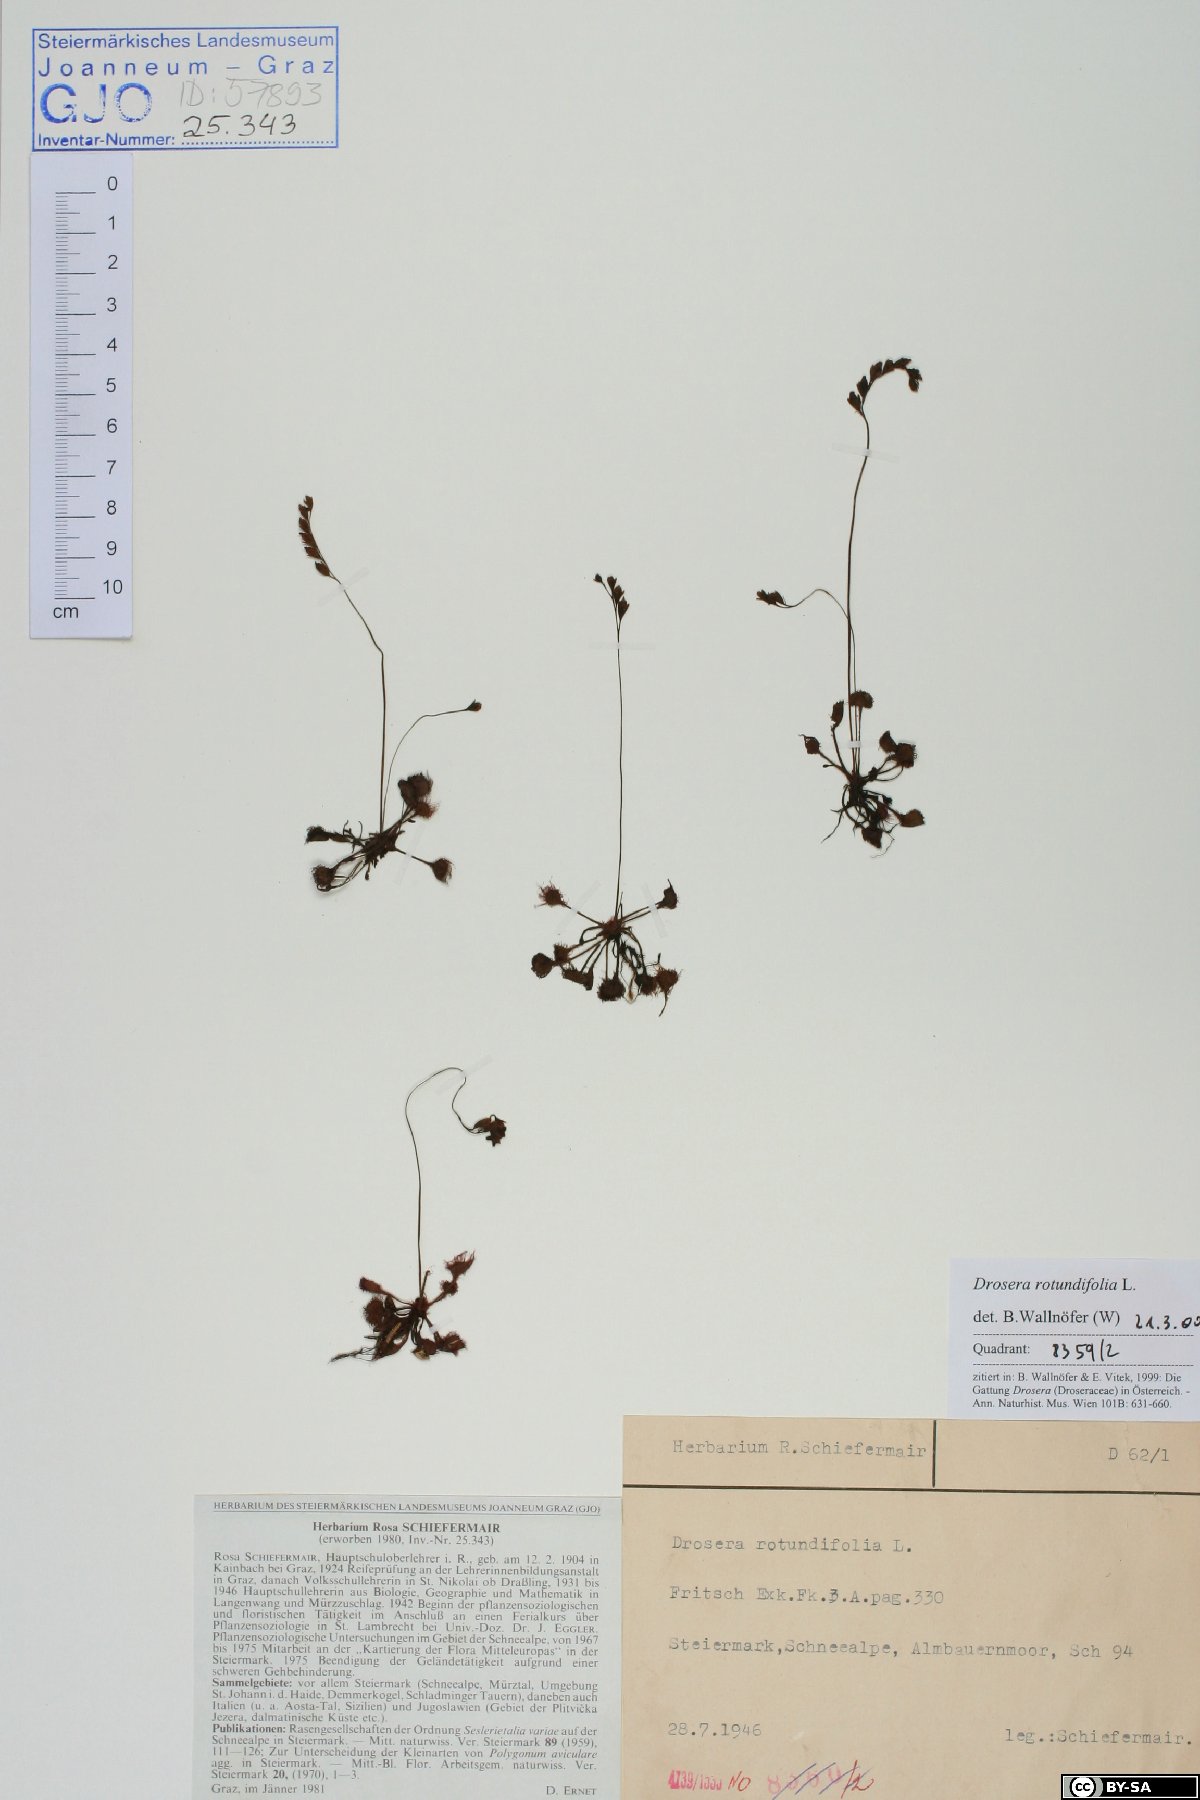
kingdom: Plantae
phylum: Tracheophyta
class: Magnoliopsida
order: Caryophyllales
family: Droseraceae
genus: Drosera
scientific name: Drosera rotundifolia
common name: Round-leaved sundew
